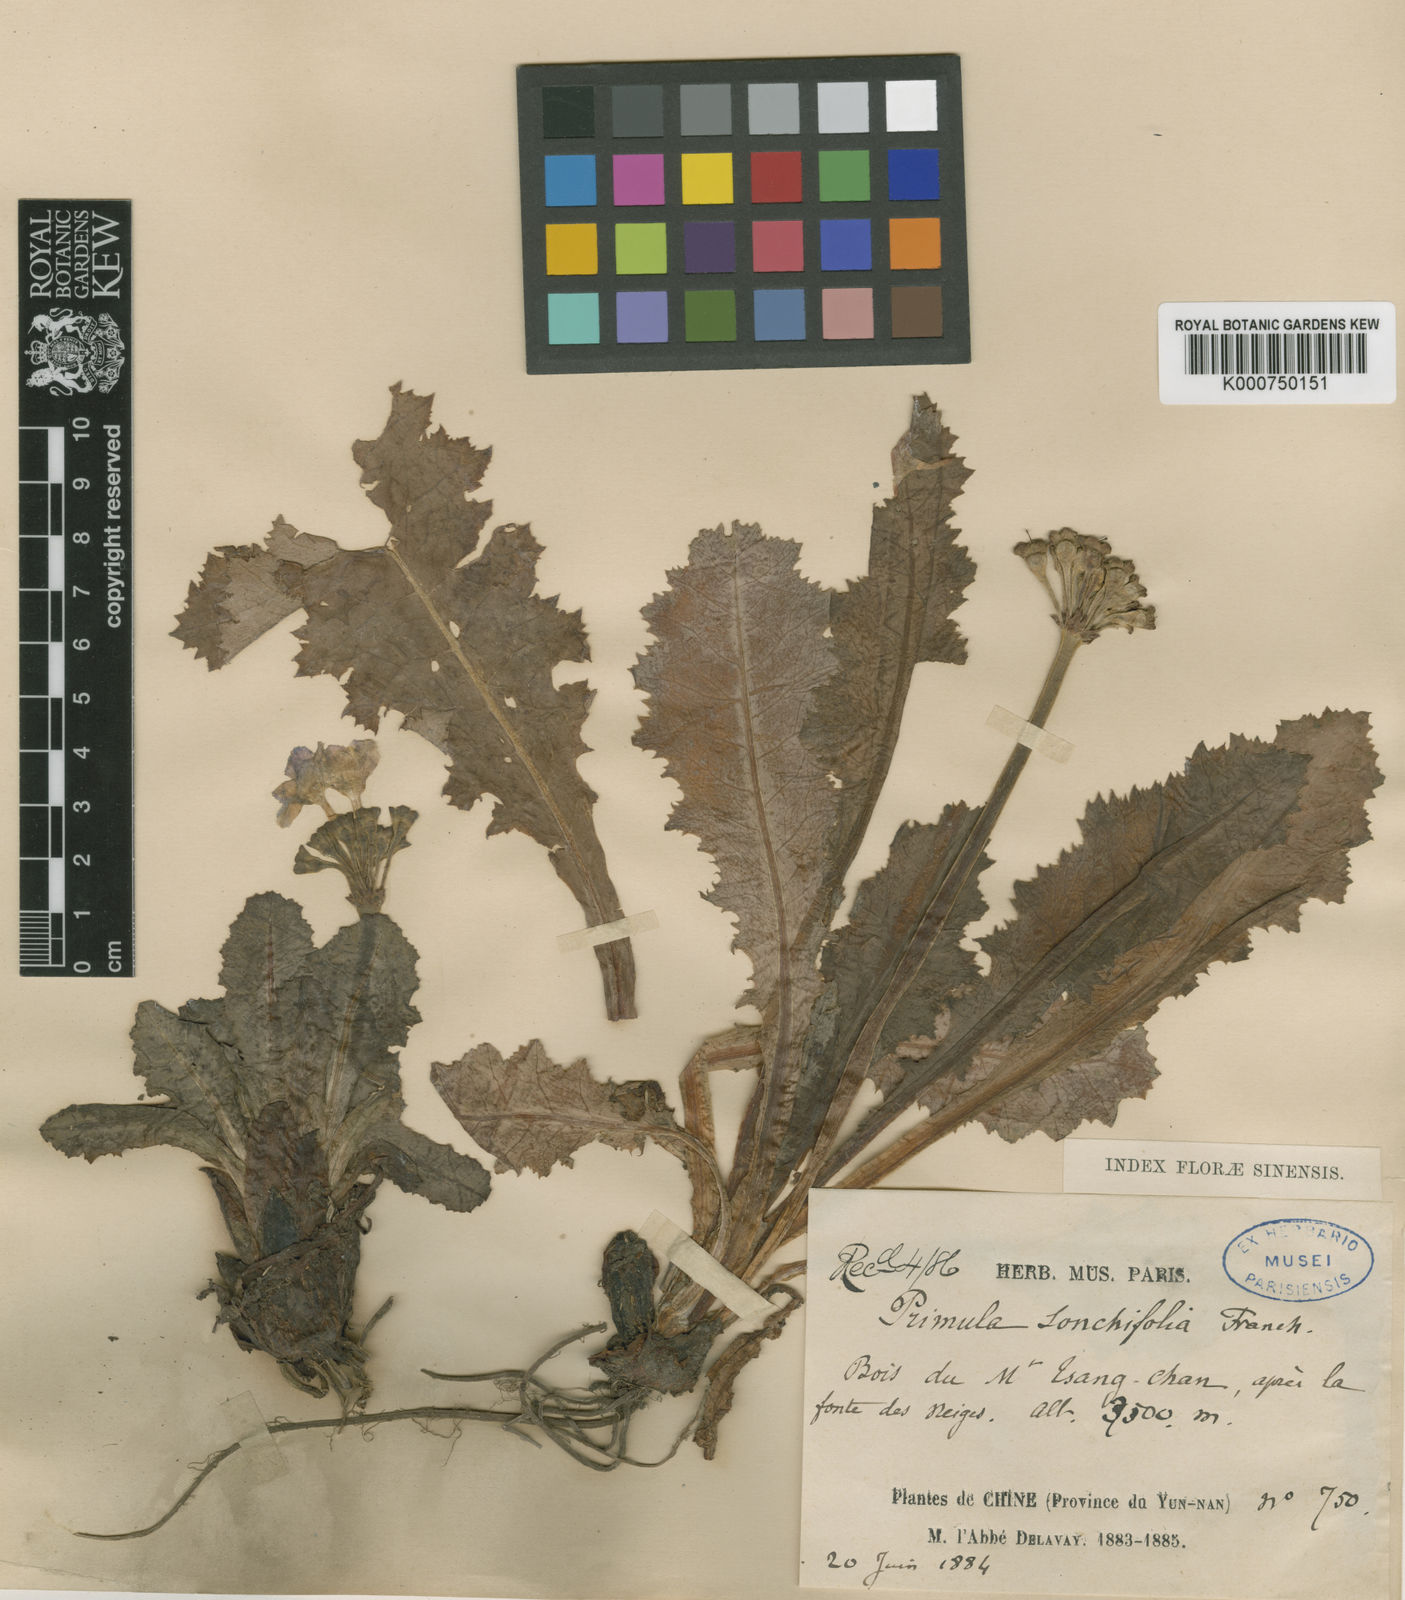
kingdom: Plantae
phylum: Tracheophyta
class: Magnoliopsida
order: Ericales
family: Primulaceae
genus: Primula
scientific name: Primula sonchifolia
